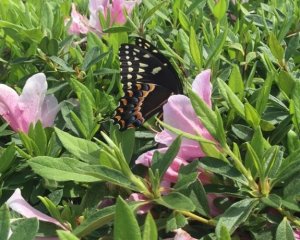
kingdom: Animalia
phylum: Arthropoda
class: Insecta
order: Lepidoptera
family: Papilionidae
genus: Pterourus
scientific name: Pterourus palamedes
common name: Palamedes Swallowtail
